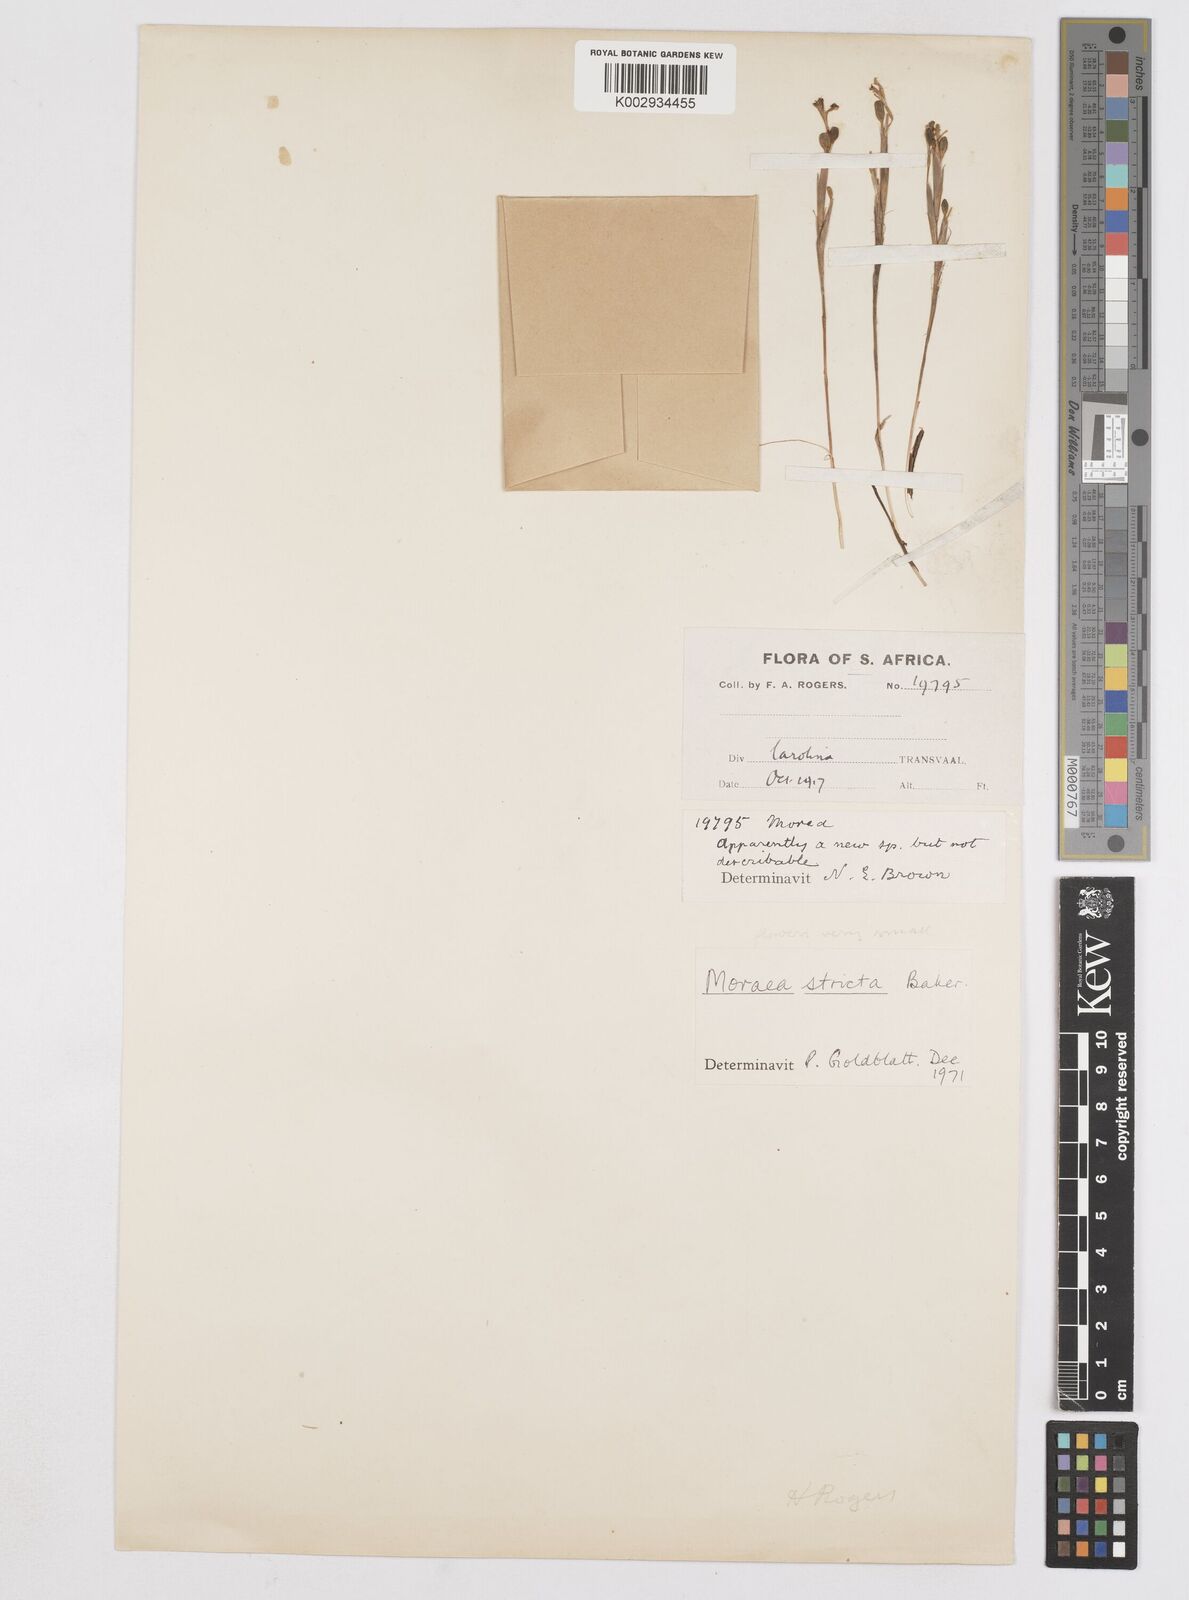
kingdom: Plantae
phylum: Tracheophyta
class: Liliopsida
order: Asparagales
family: Iridaceae
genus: Moraea
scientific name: Moraea stricta
